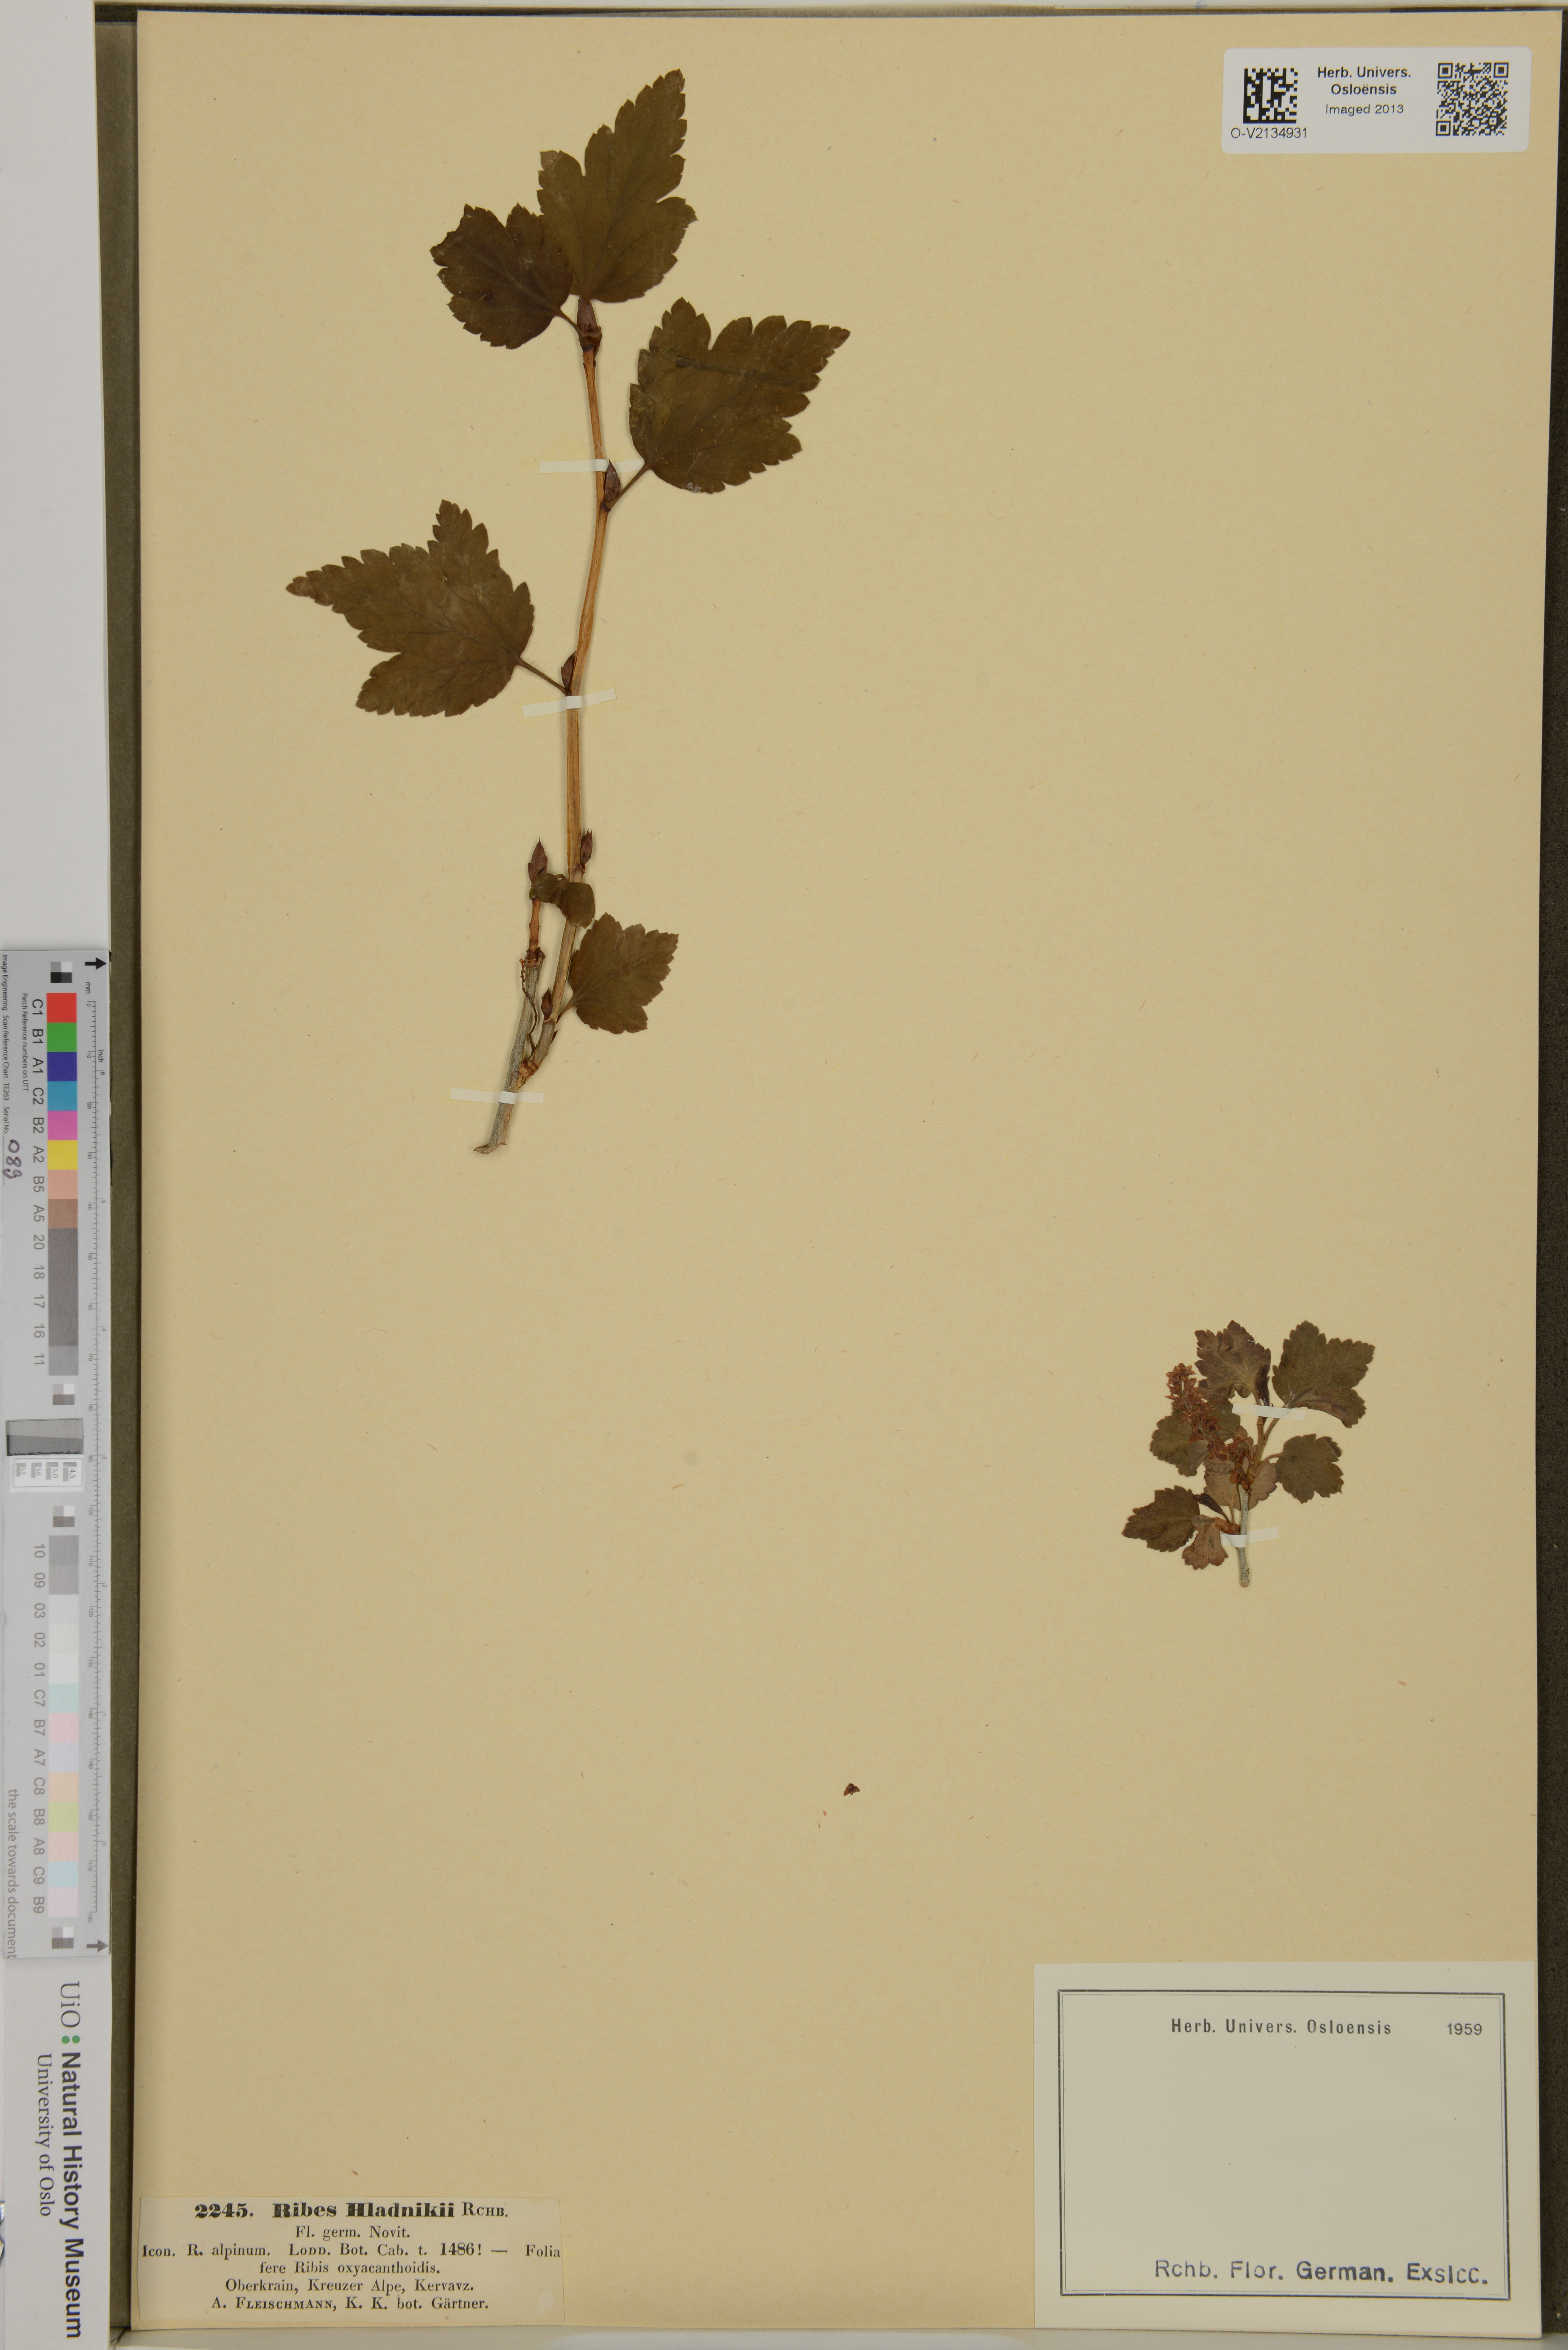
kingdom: Plantae
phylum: Tracheophyta
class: Magnoliopsida
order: Saxifragales
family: Grossulariaceae
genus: Ribes
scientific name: Ribes alpinum
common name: Alpine currant
